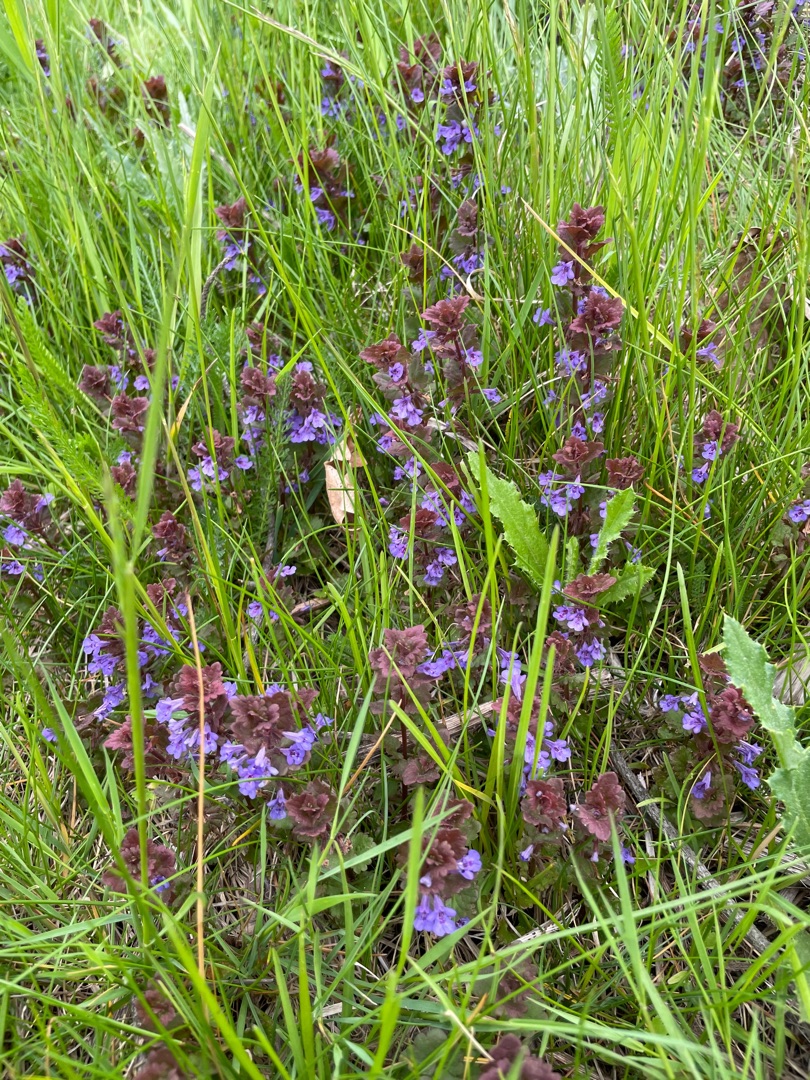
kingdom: Plantae
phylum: Tracheophyta
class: Magnoliopsida
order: Lamiales
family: Lamiaceae
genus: Glechoma
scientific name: Glechoma hederacea
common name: Korsknap
